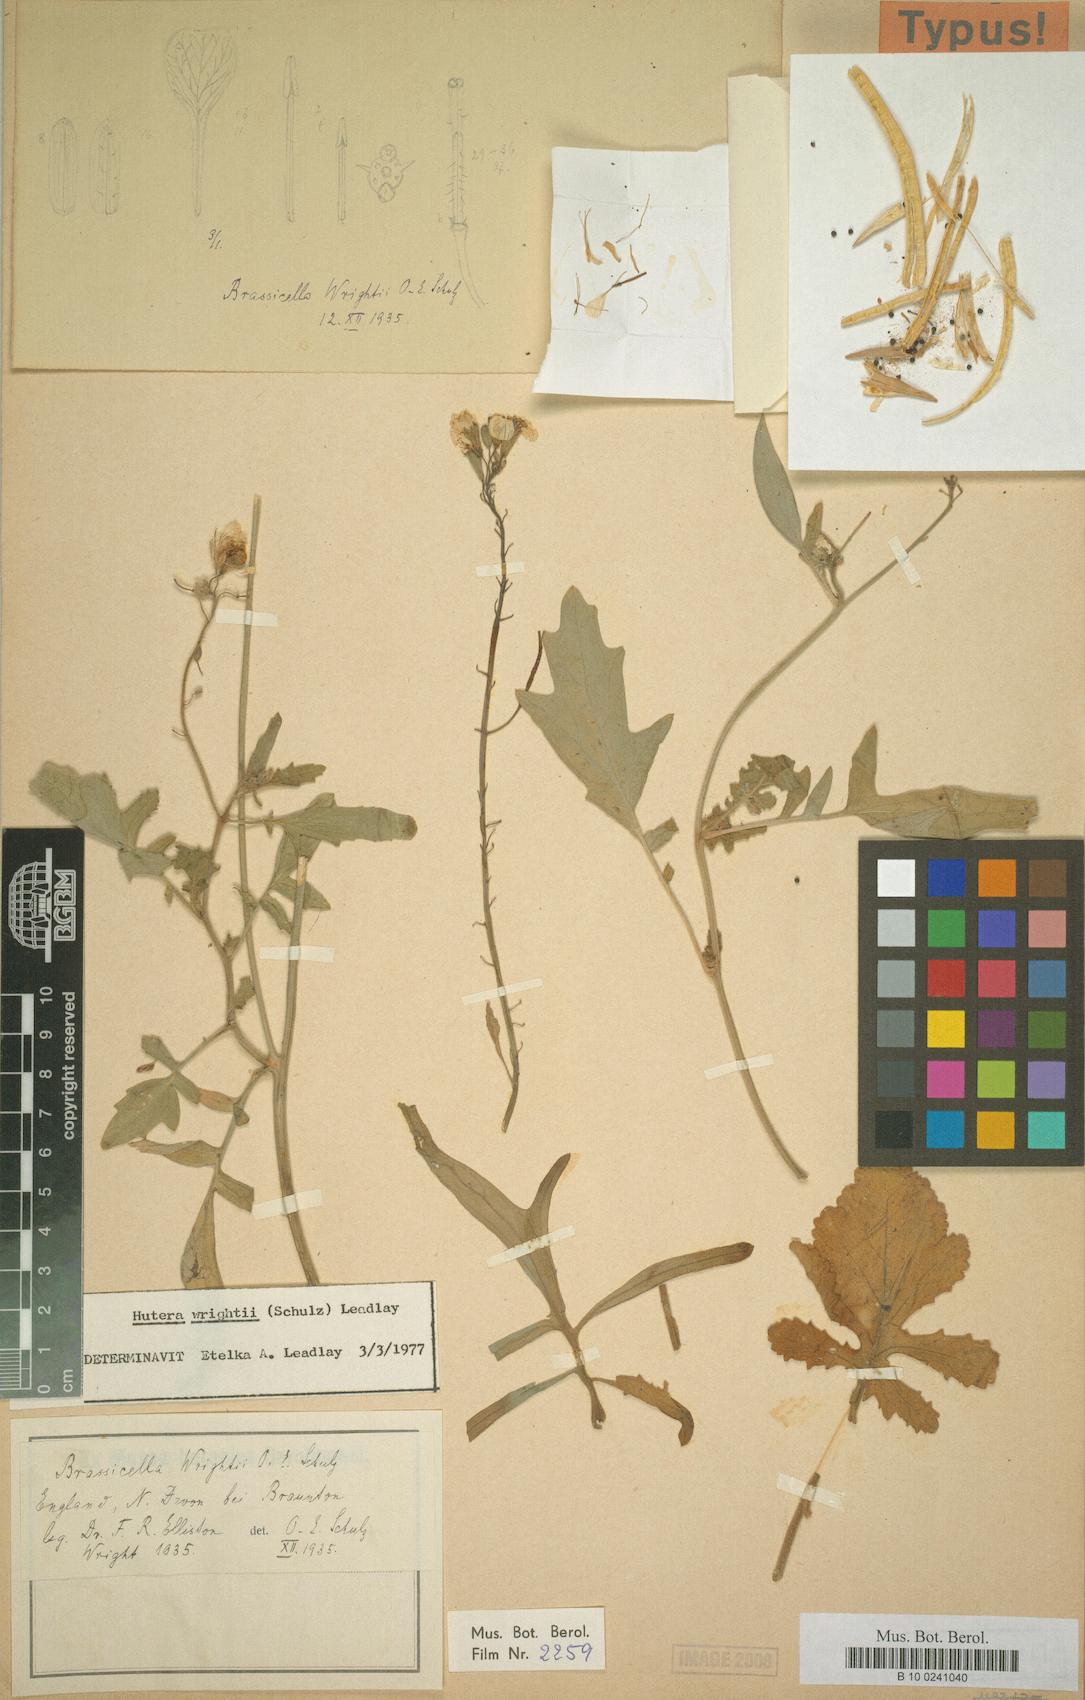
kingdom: Plantae
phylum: Tracheophyta
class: Magnoliopsida
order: Brassicales
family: Brassicaceae
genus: Coincya
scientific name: Coincya wrightii
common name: Lundy cabbage
